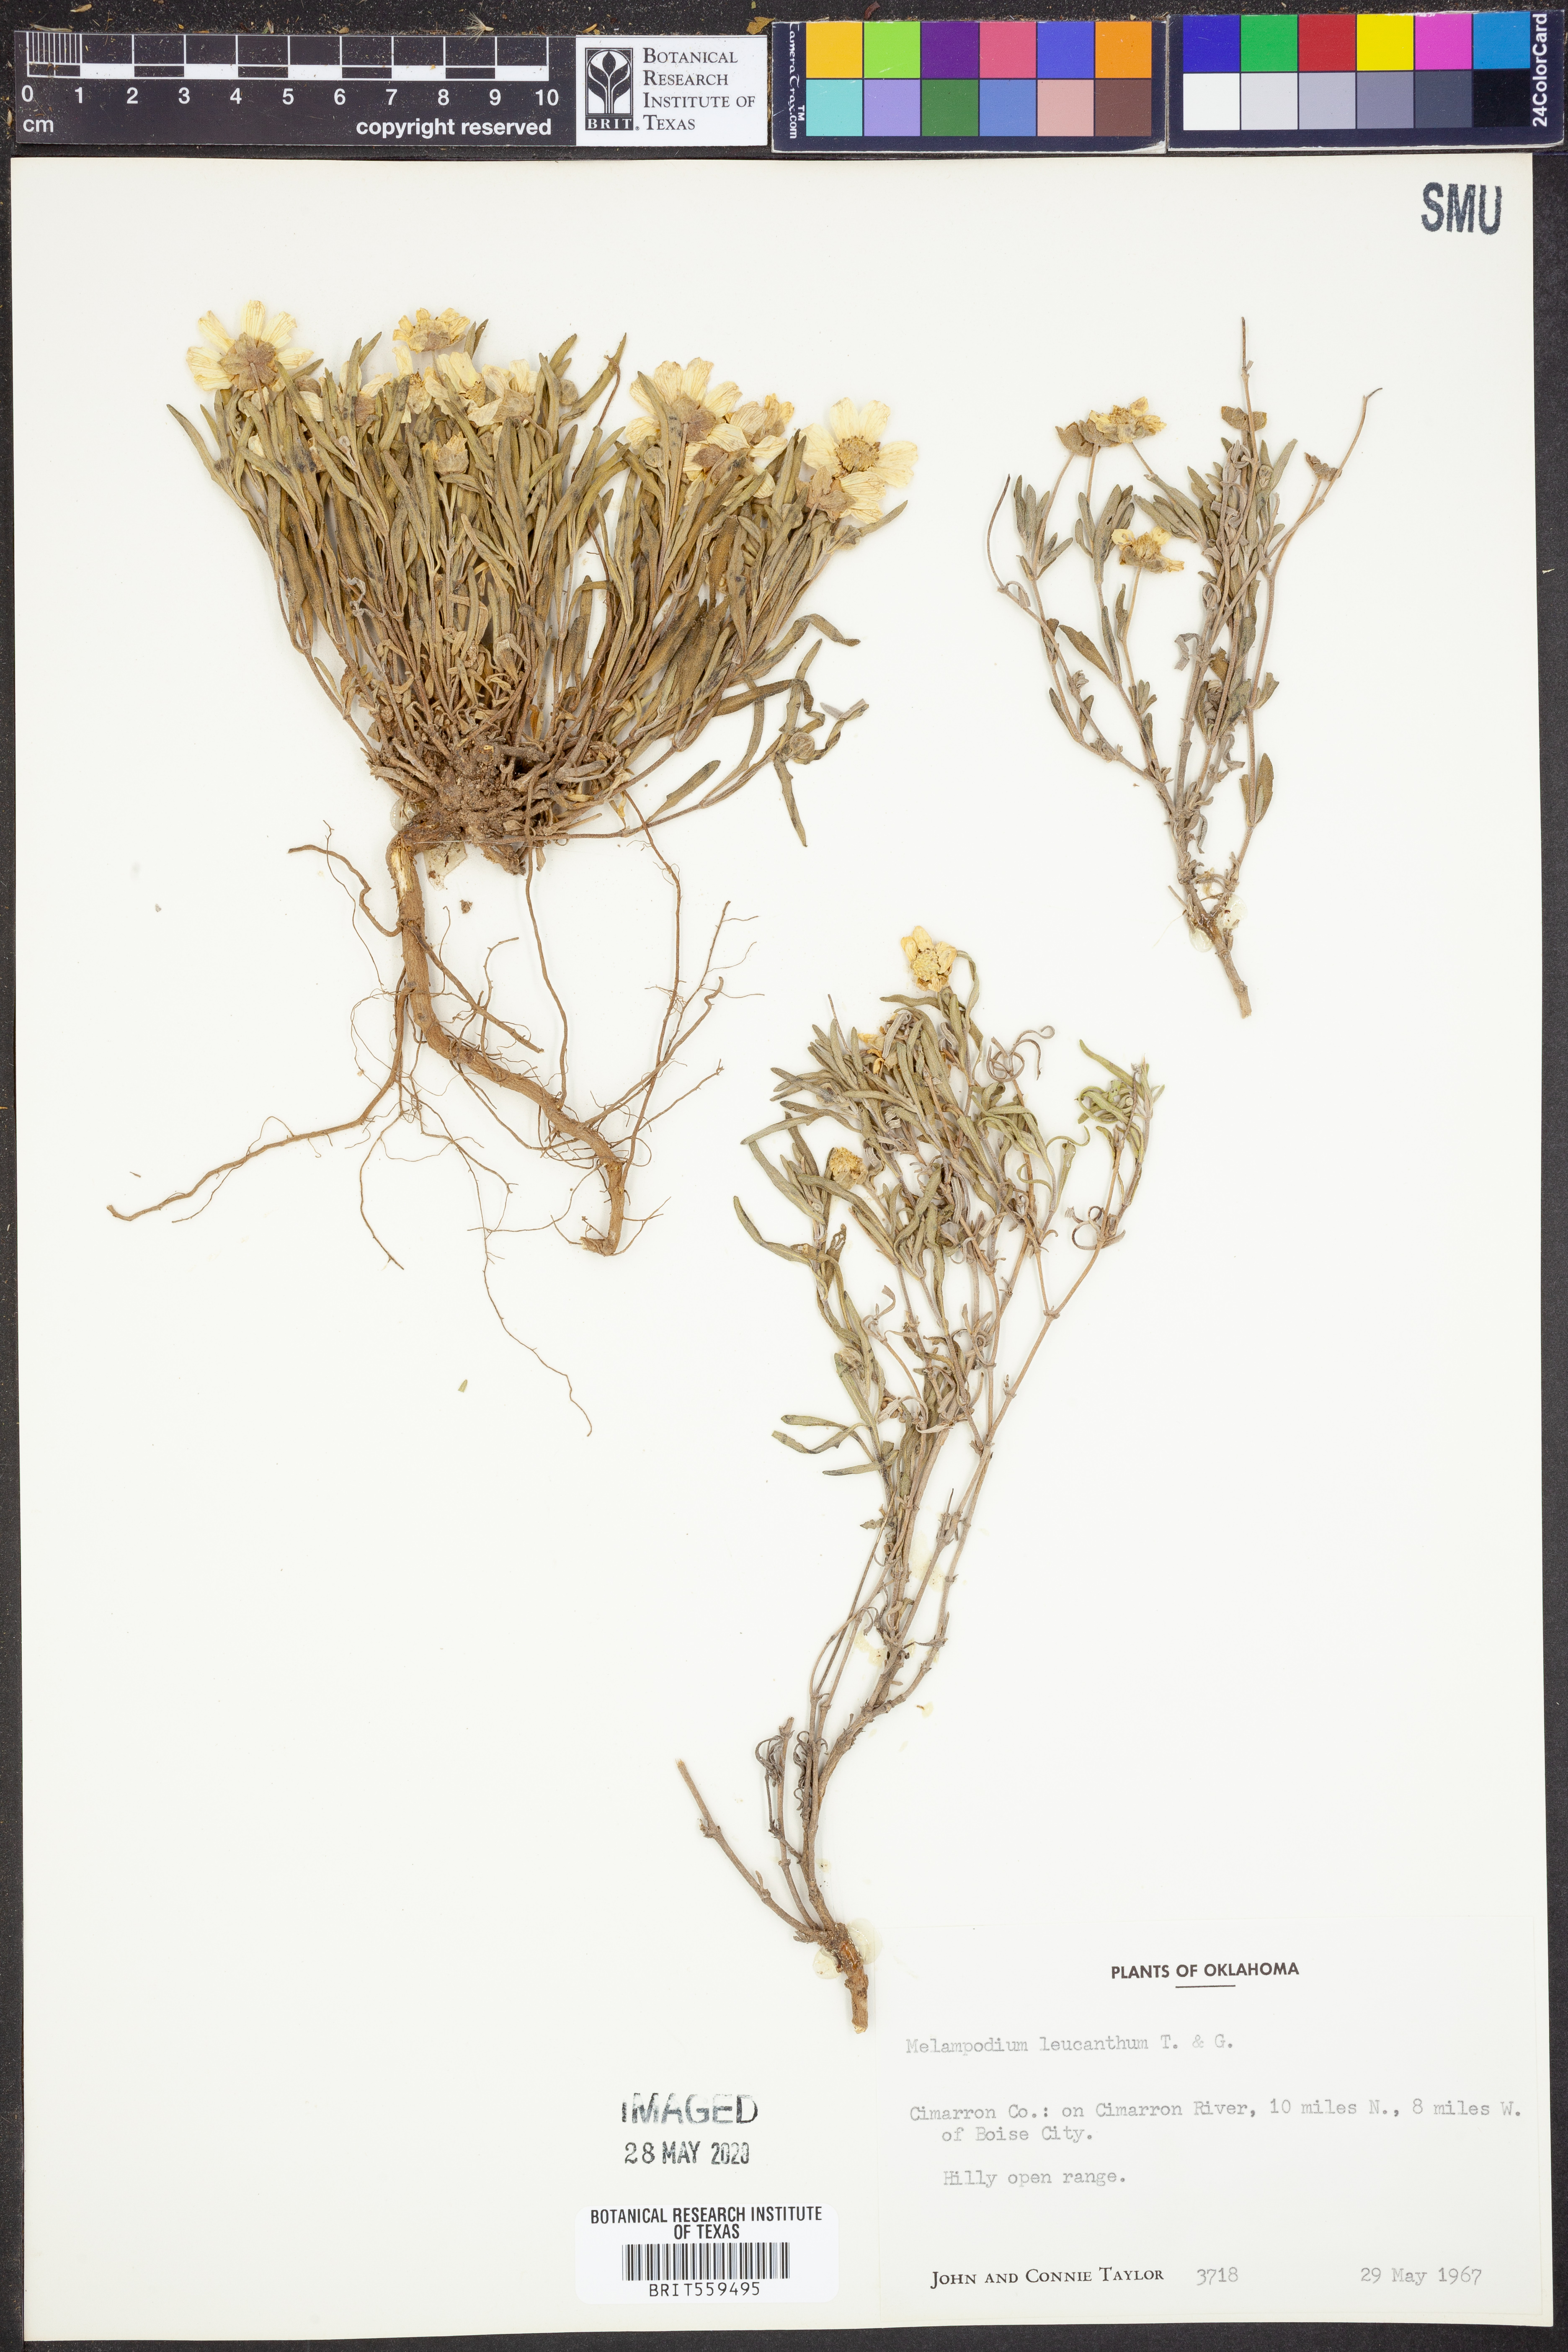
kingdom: Plantae
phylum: Tracheophyta
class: Magnoliopsida
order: Asterales
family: Asteraceae
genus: Melampodium
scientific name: Melampodium leucanthum
